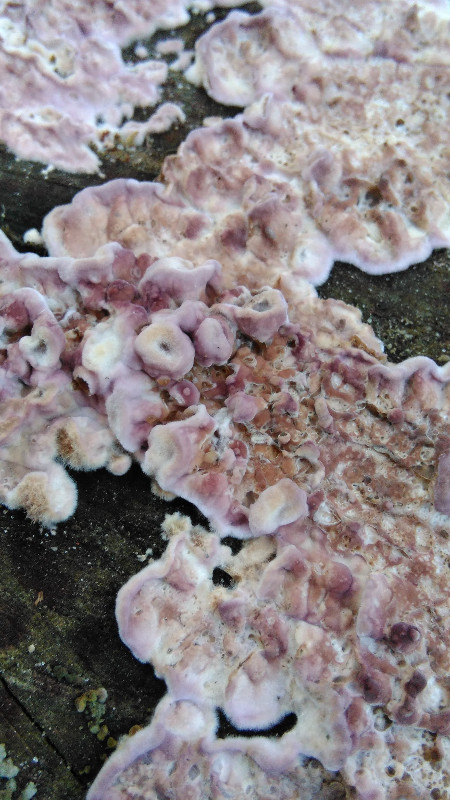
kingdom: Fungi
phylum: Basidiomycota
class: Agaricomycetes
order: Agaricales
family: Cyphellaceae
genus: Chondrostereum
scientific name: Chondrostereum purpureum
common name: purpurlædersvamp
